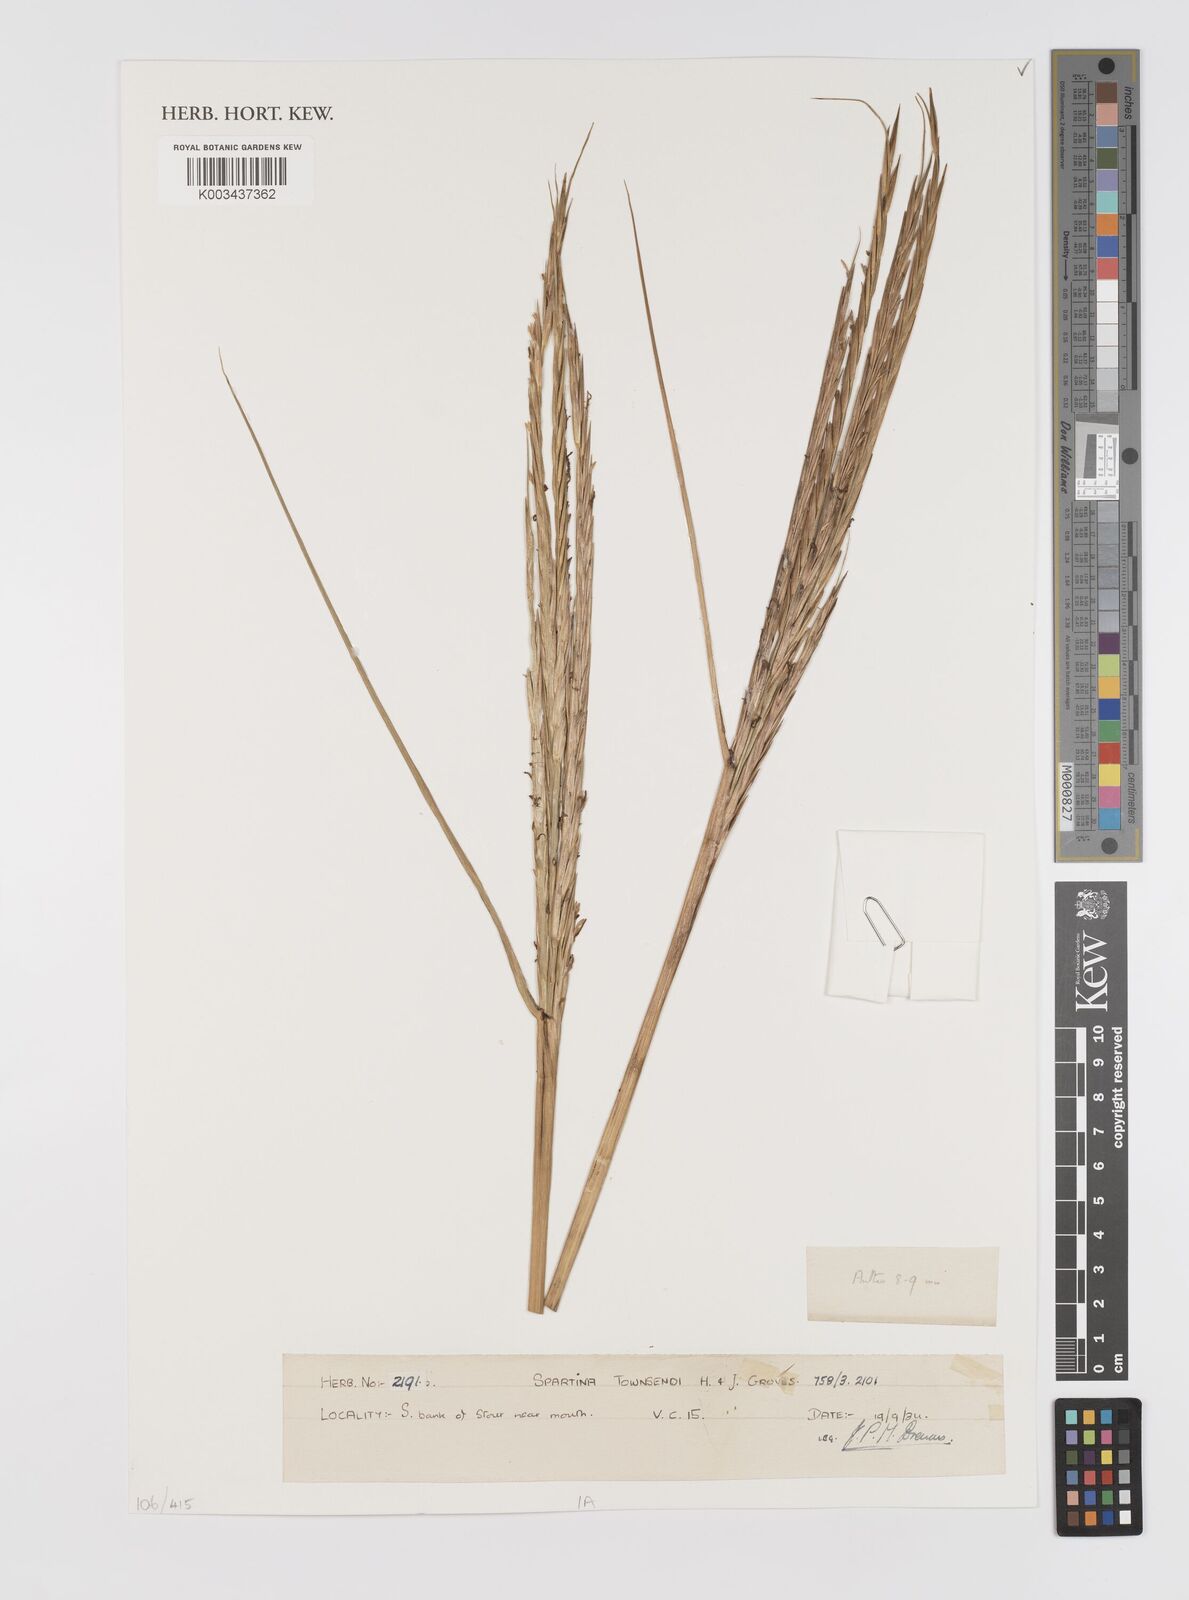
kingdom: Plantae
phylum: Tracheophyta
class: Liliopsida
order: Poales
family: Poaceae
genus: Sporobolus
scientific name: Sporobolus townsendii
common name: Townsend's cordgrass
